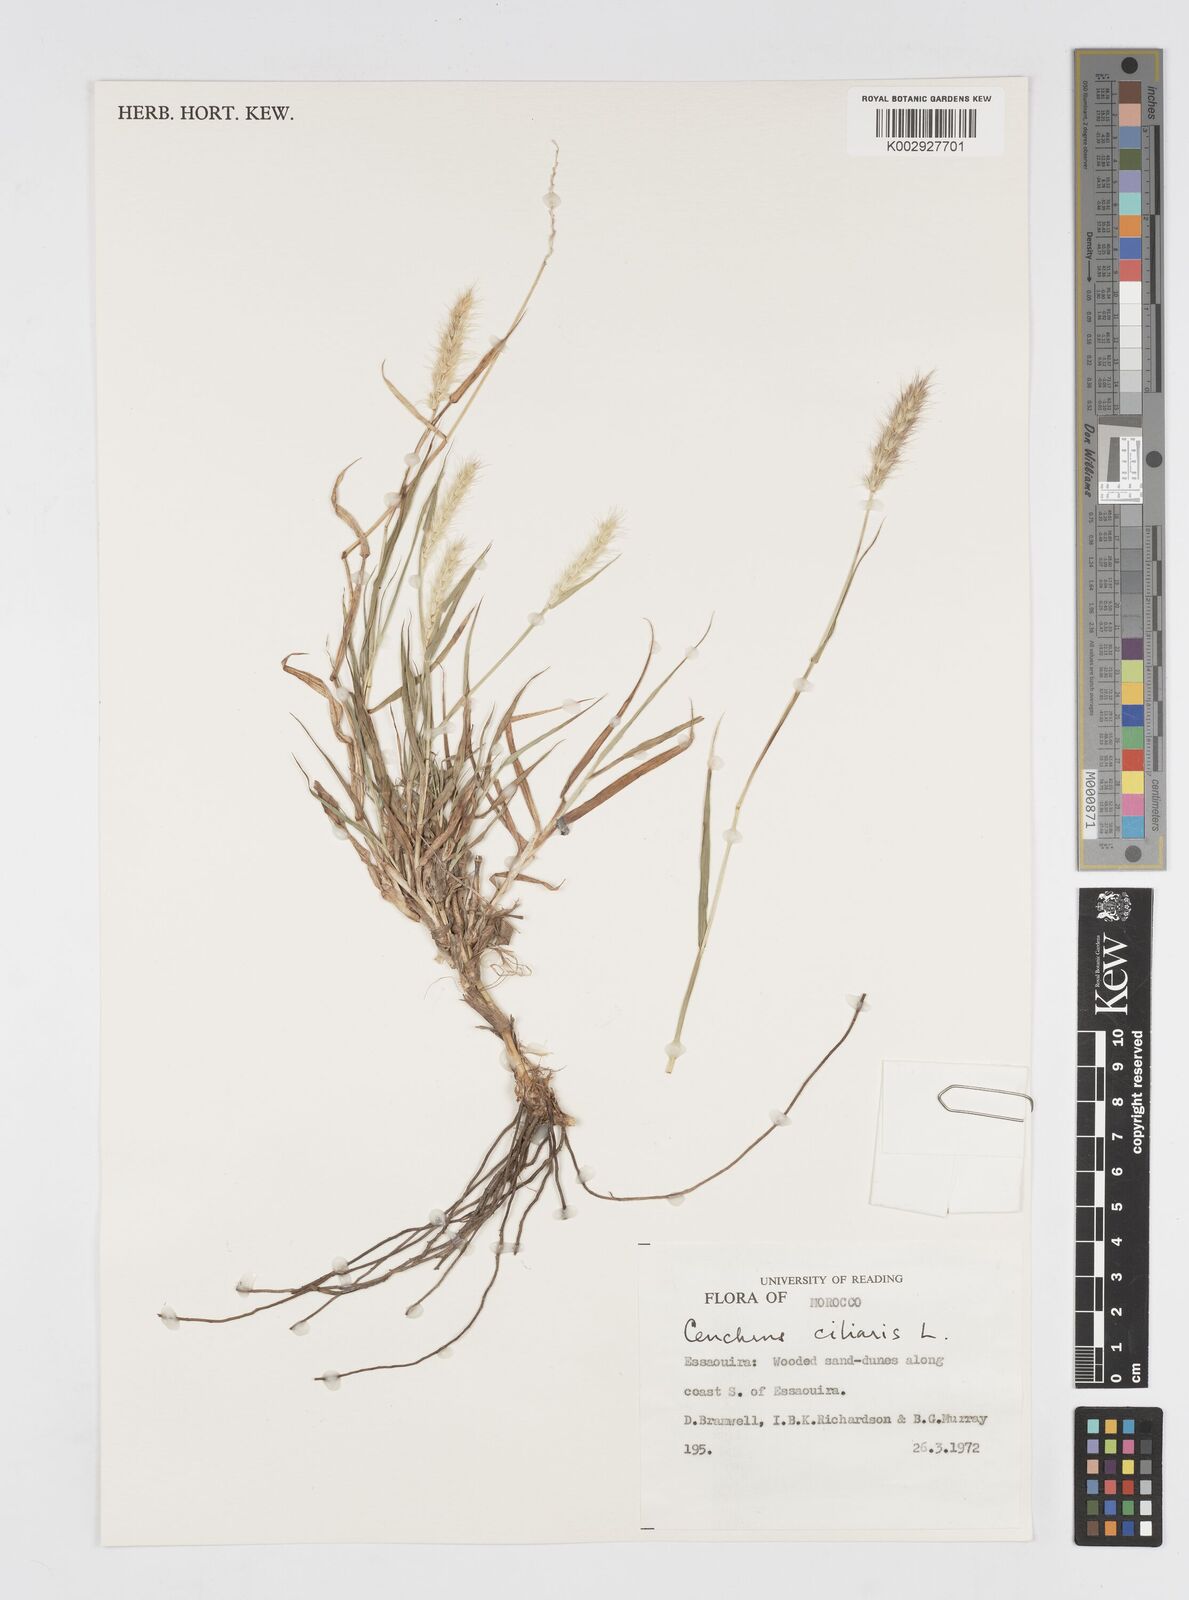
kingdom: Plantae
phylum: Tracheophyta
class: Liliopsida
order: Poales
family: Poaceae
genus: Cenchrus
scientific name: Cenchrus ciliaris
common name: Buffelgrass
